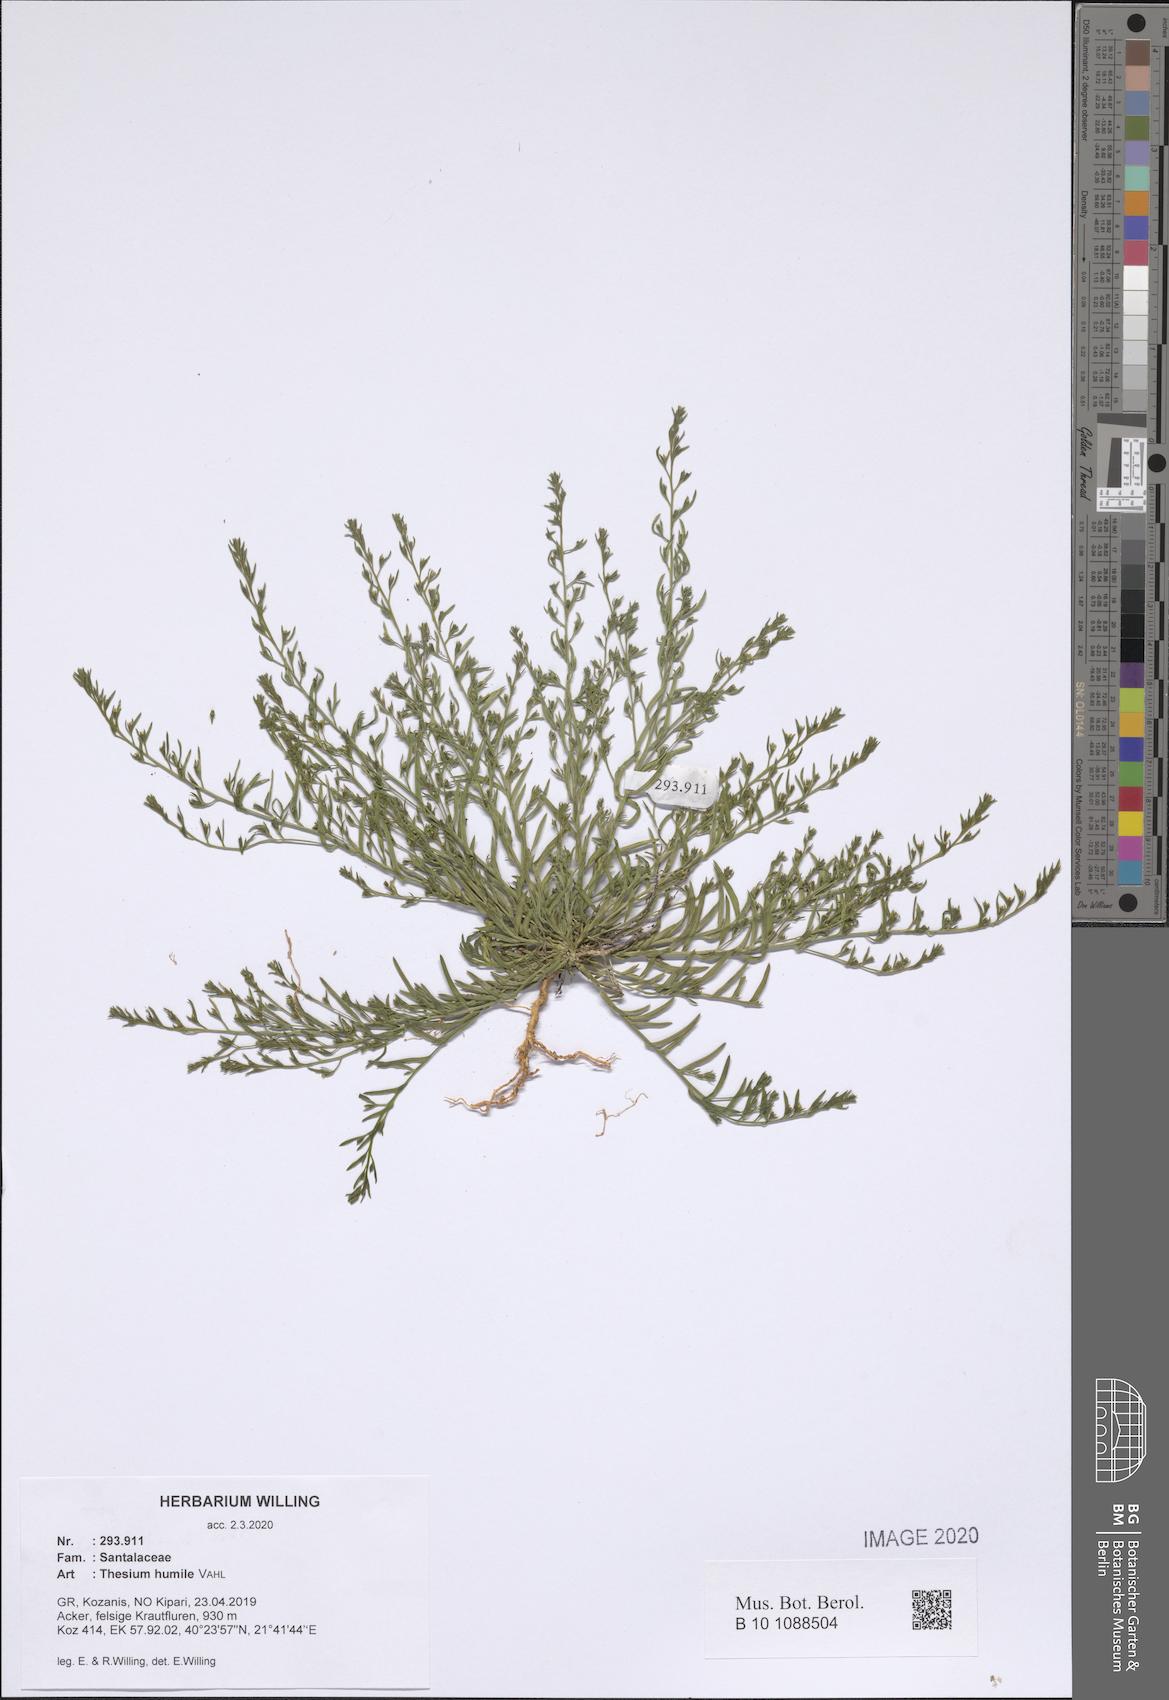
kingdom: Plantae
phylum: Tracheophyta
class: Magnoliopsida
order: Santalales
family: Thesiaceae
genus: Thesium
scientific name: Thesium humile
